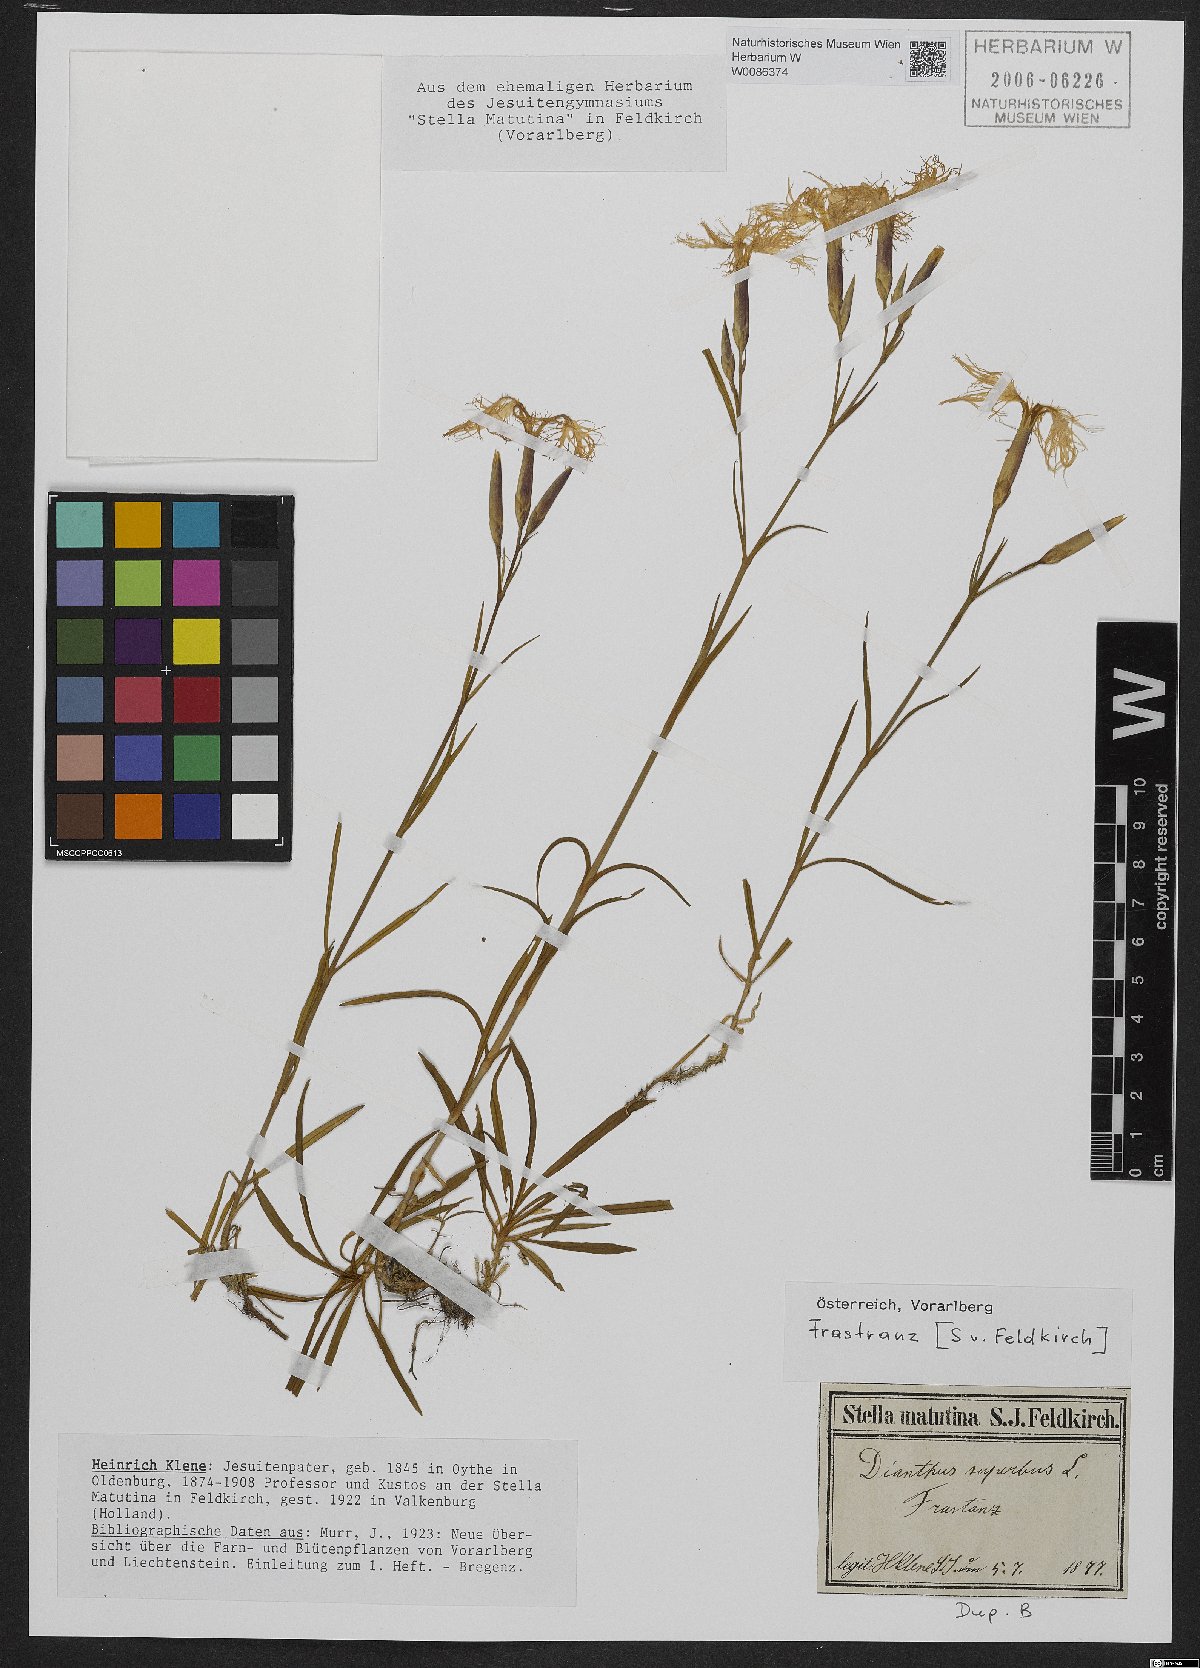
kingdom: Plantae
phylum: Tracheophyta
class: Magnoliopsida
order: Caryophyllales
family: Caryophyllaceae
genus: Dianthus
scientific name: Dianthus superbus
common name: Fringed pink
